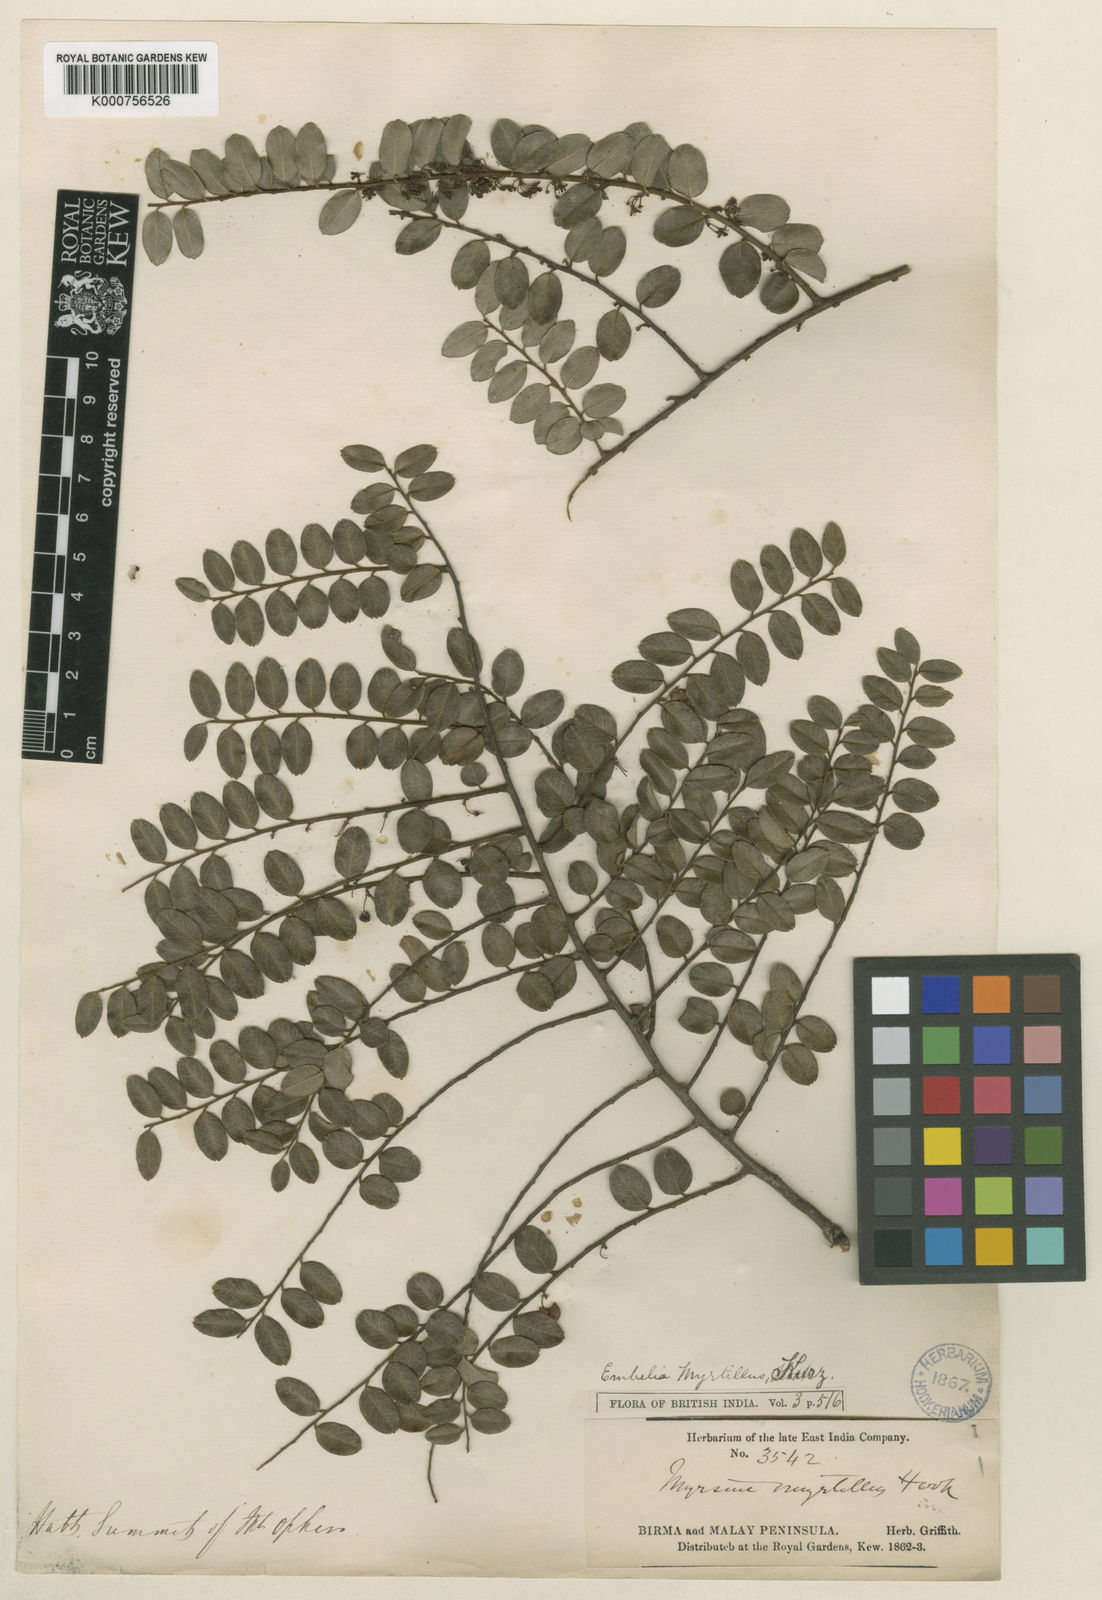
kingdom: Plantae
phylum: Tracheophyta
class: Magnoliopsida
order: Ericales
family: Primulaceae
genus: Embelia
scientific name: Embelia myrtillus
